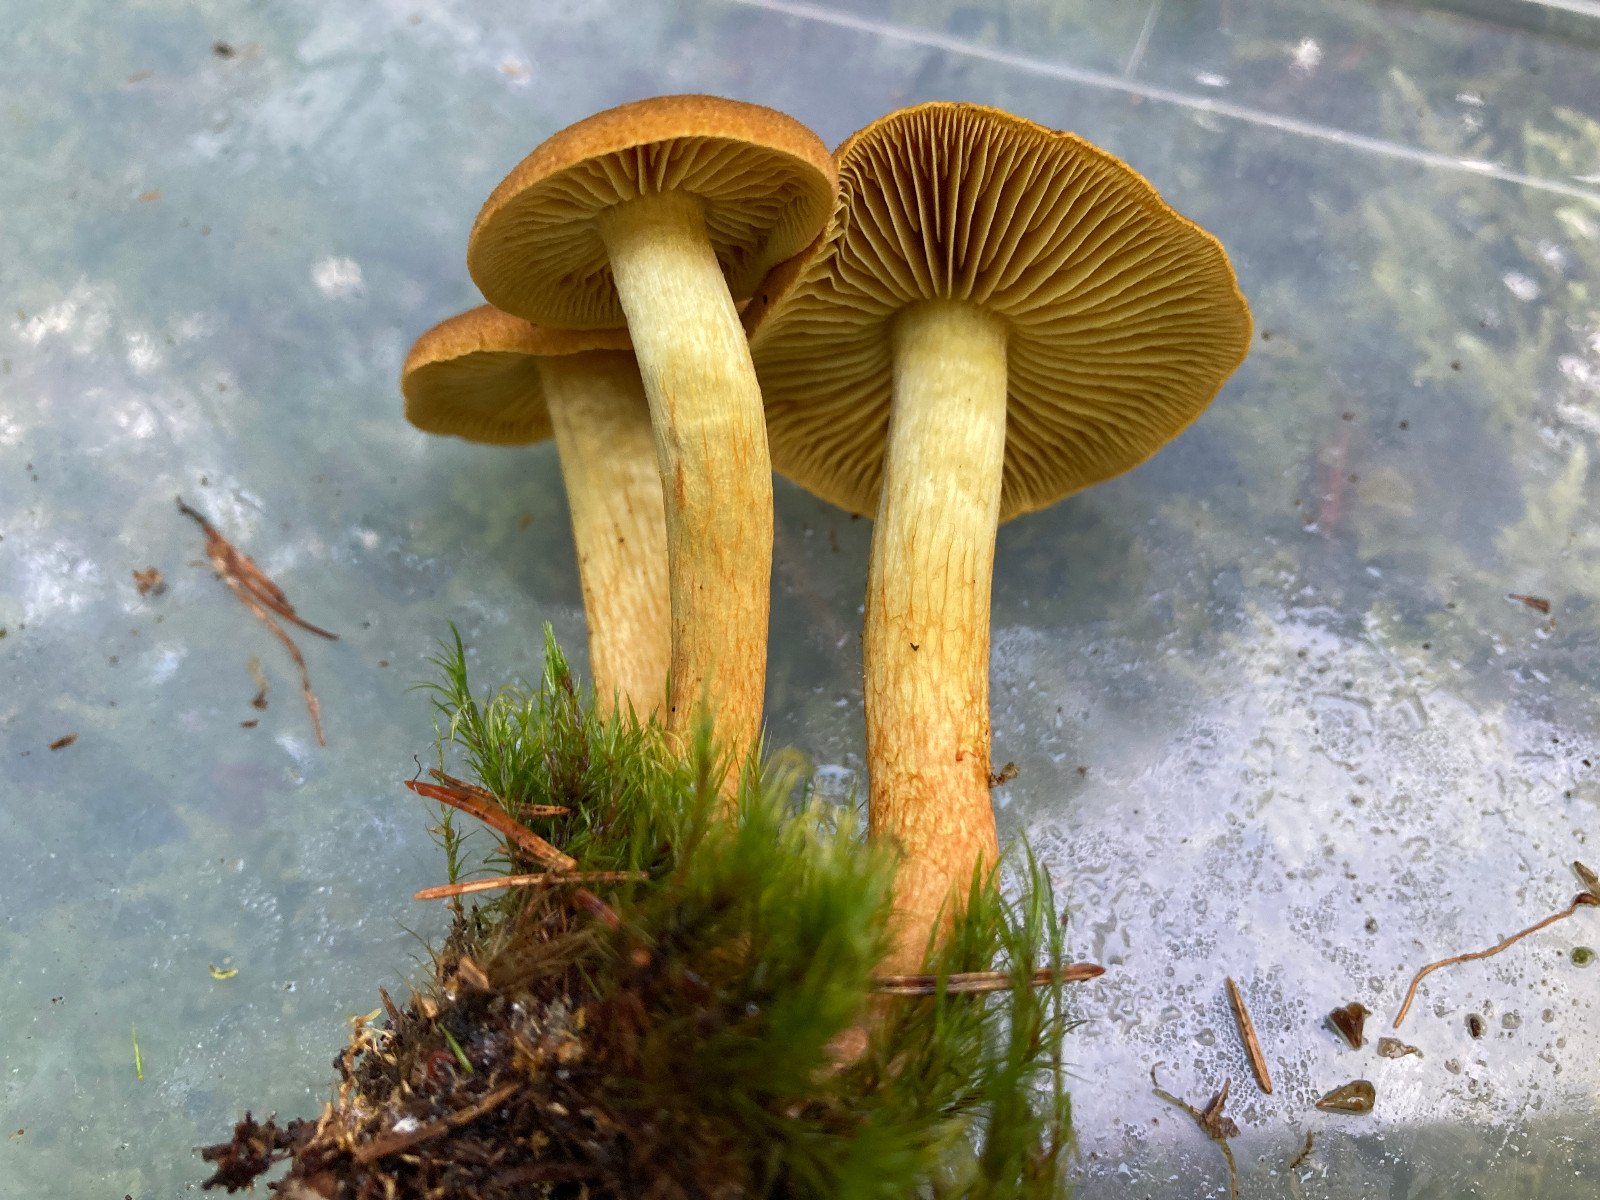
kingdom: Fungi
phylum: Basidiomycota
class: Agaricomycetes
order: Agaricales
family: Cortinariaceae
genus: Cortinarius
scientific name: Cortinarius transatlanticus
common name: transatlantisk slørhat
